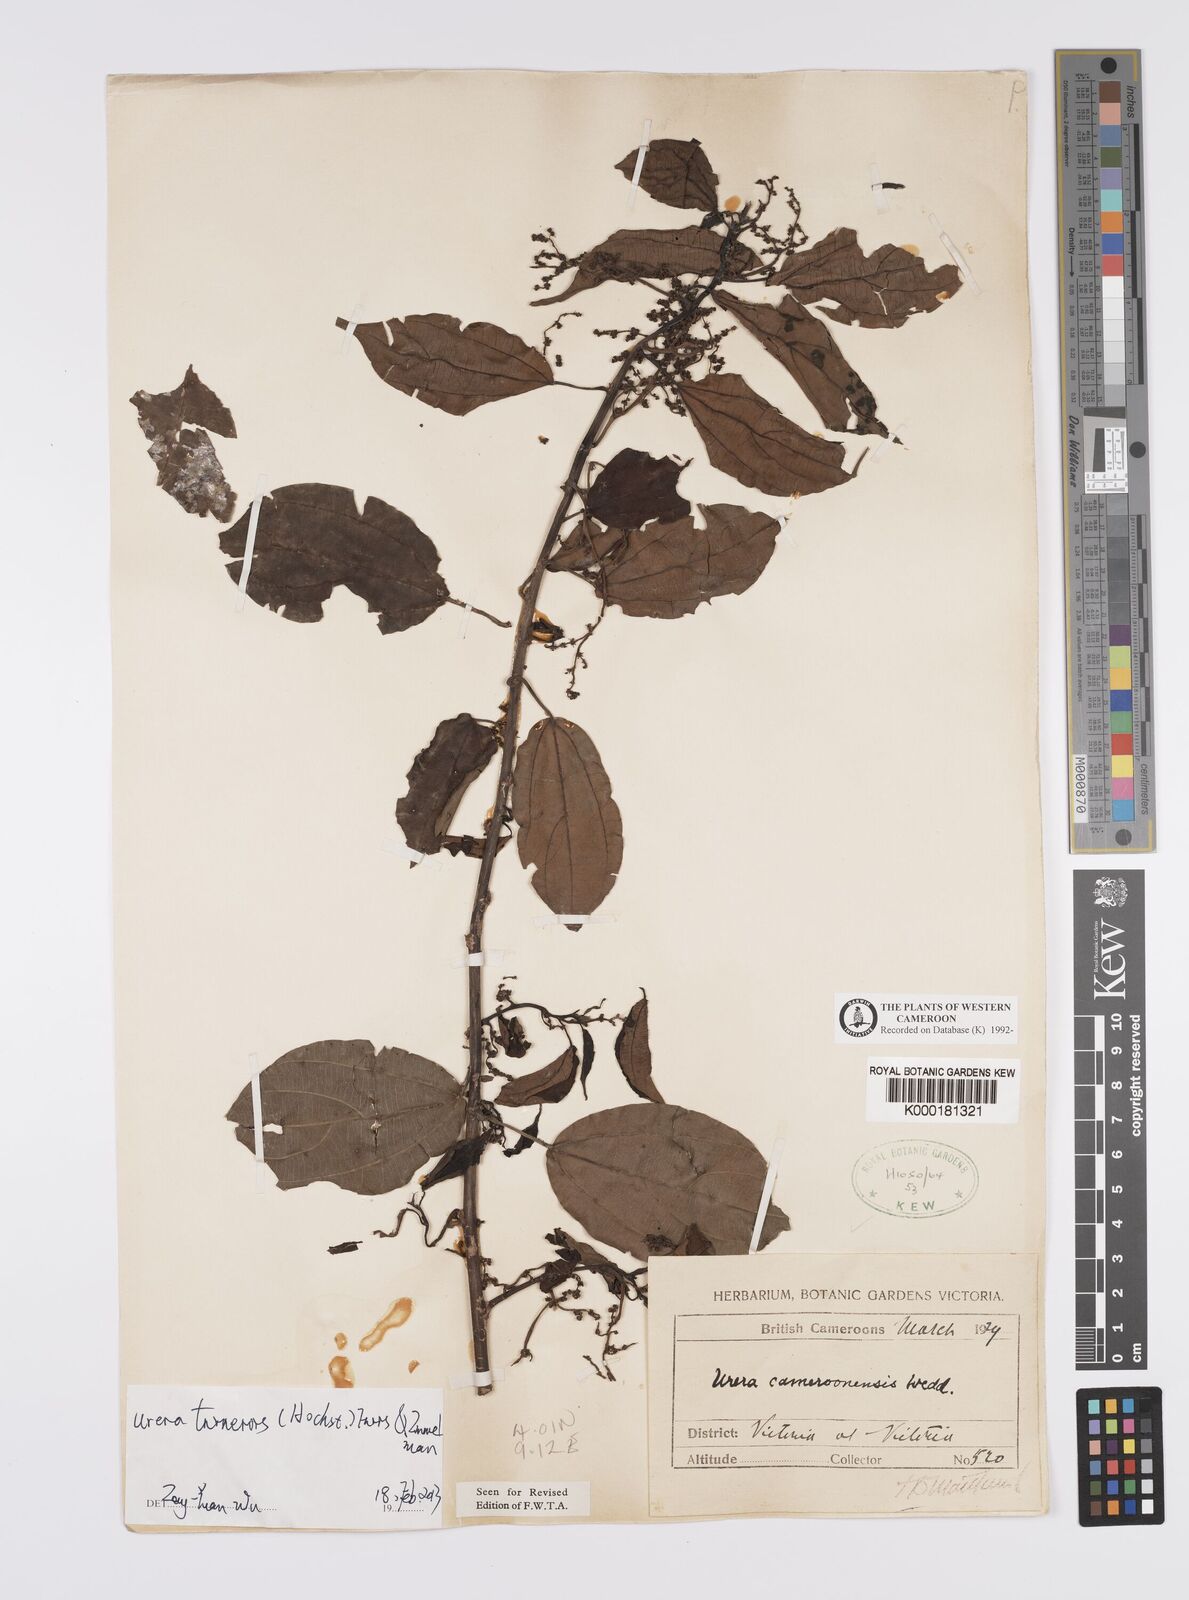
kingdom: Plantae
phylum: Tracheophyta
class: Magnoliopsida
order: Rosales
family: Urticaceae
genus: Scepocarpus
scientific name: Scepocarpus trinervis
